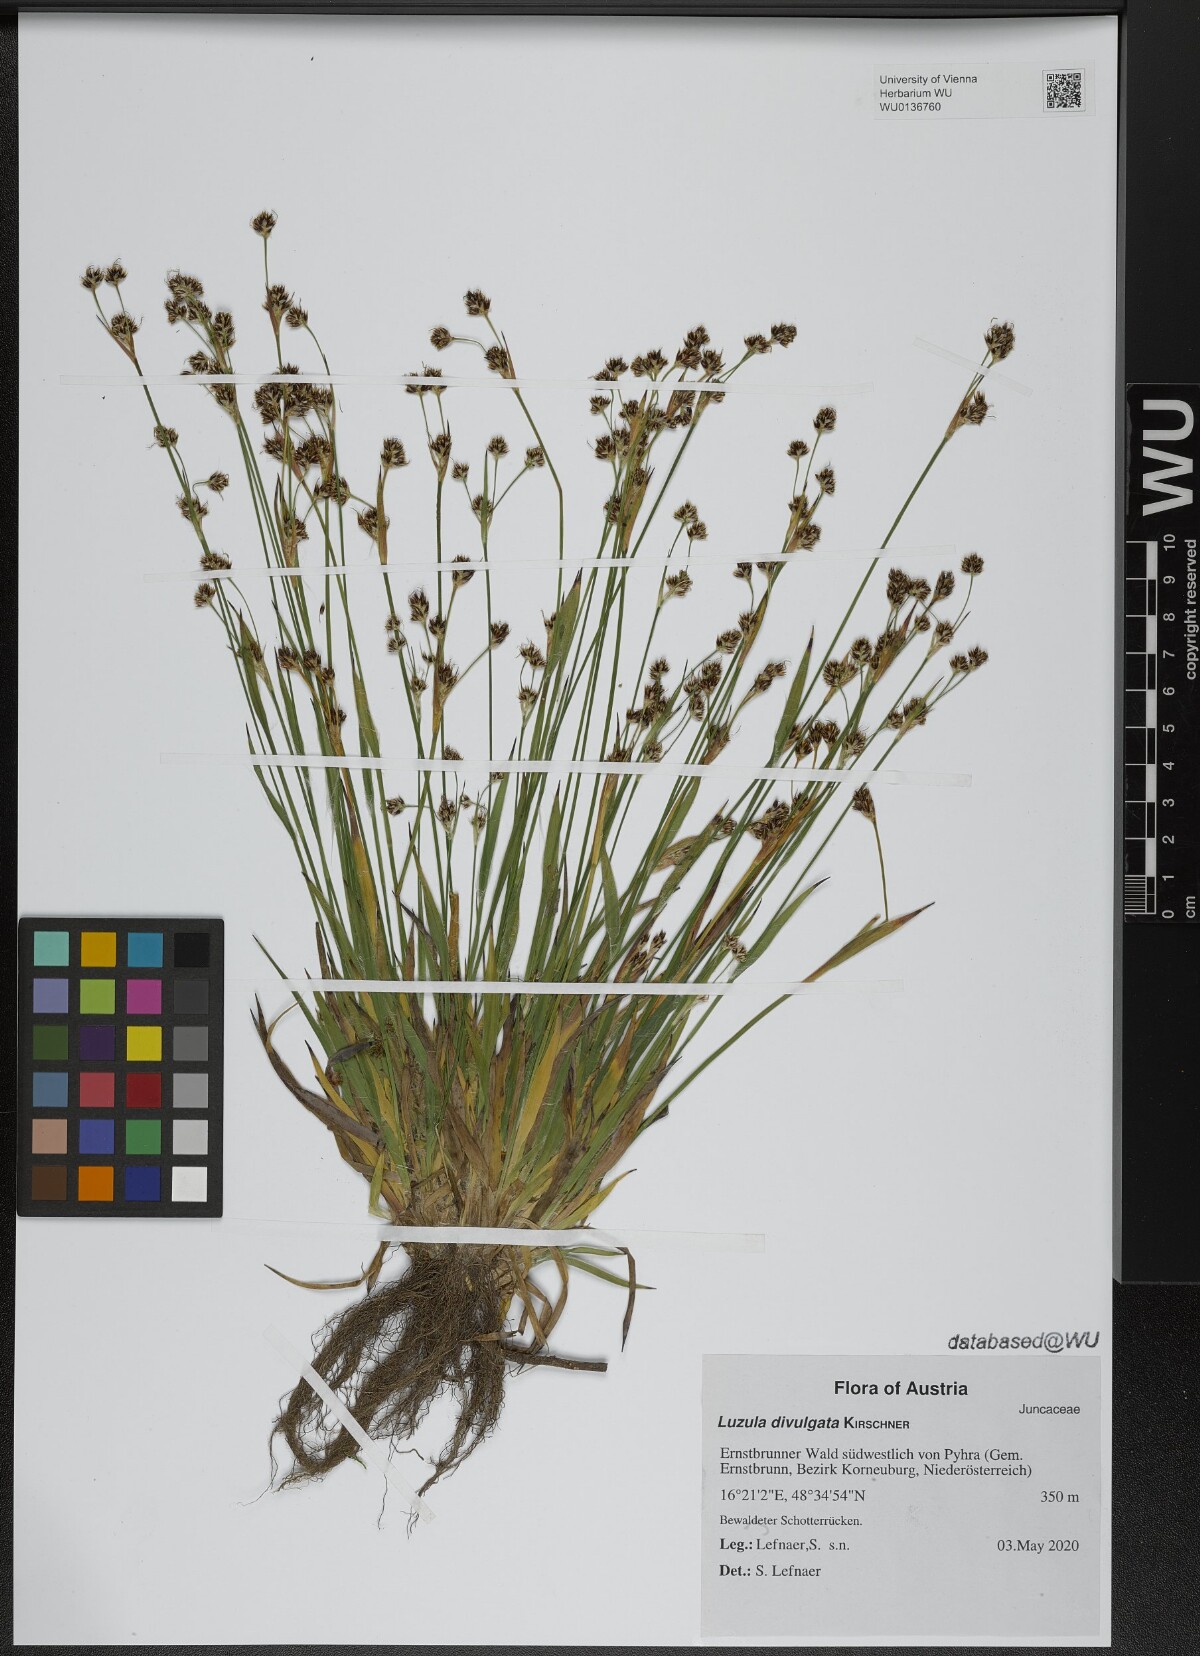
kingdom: Plantae
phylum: Tracheophyta
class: Liliopsida
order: Poales
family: Juncaceae
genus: Luzula
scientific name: Luzula divulgata
